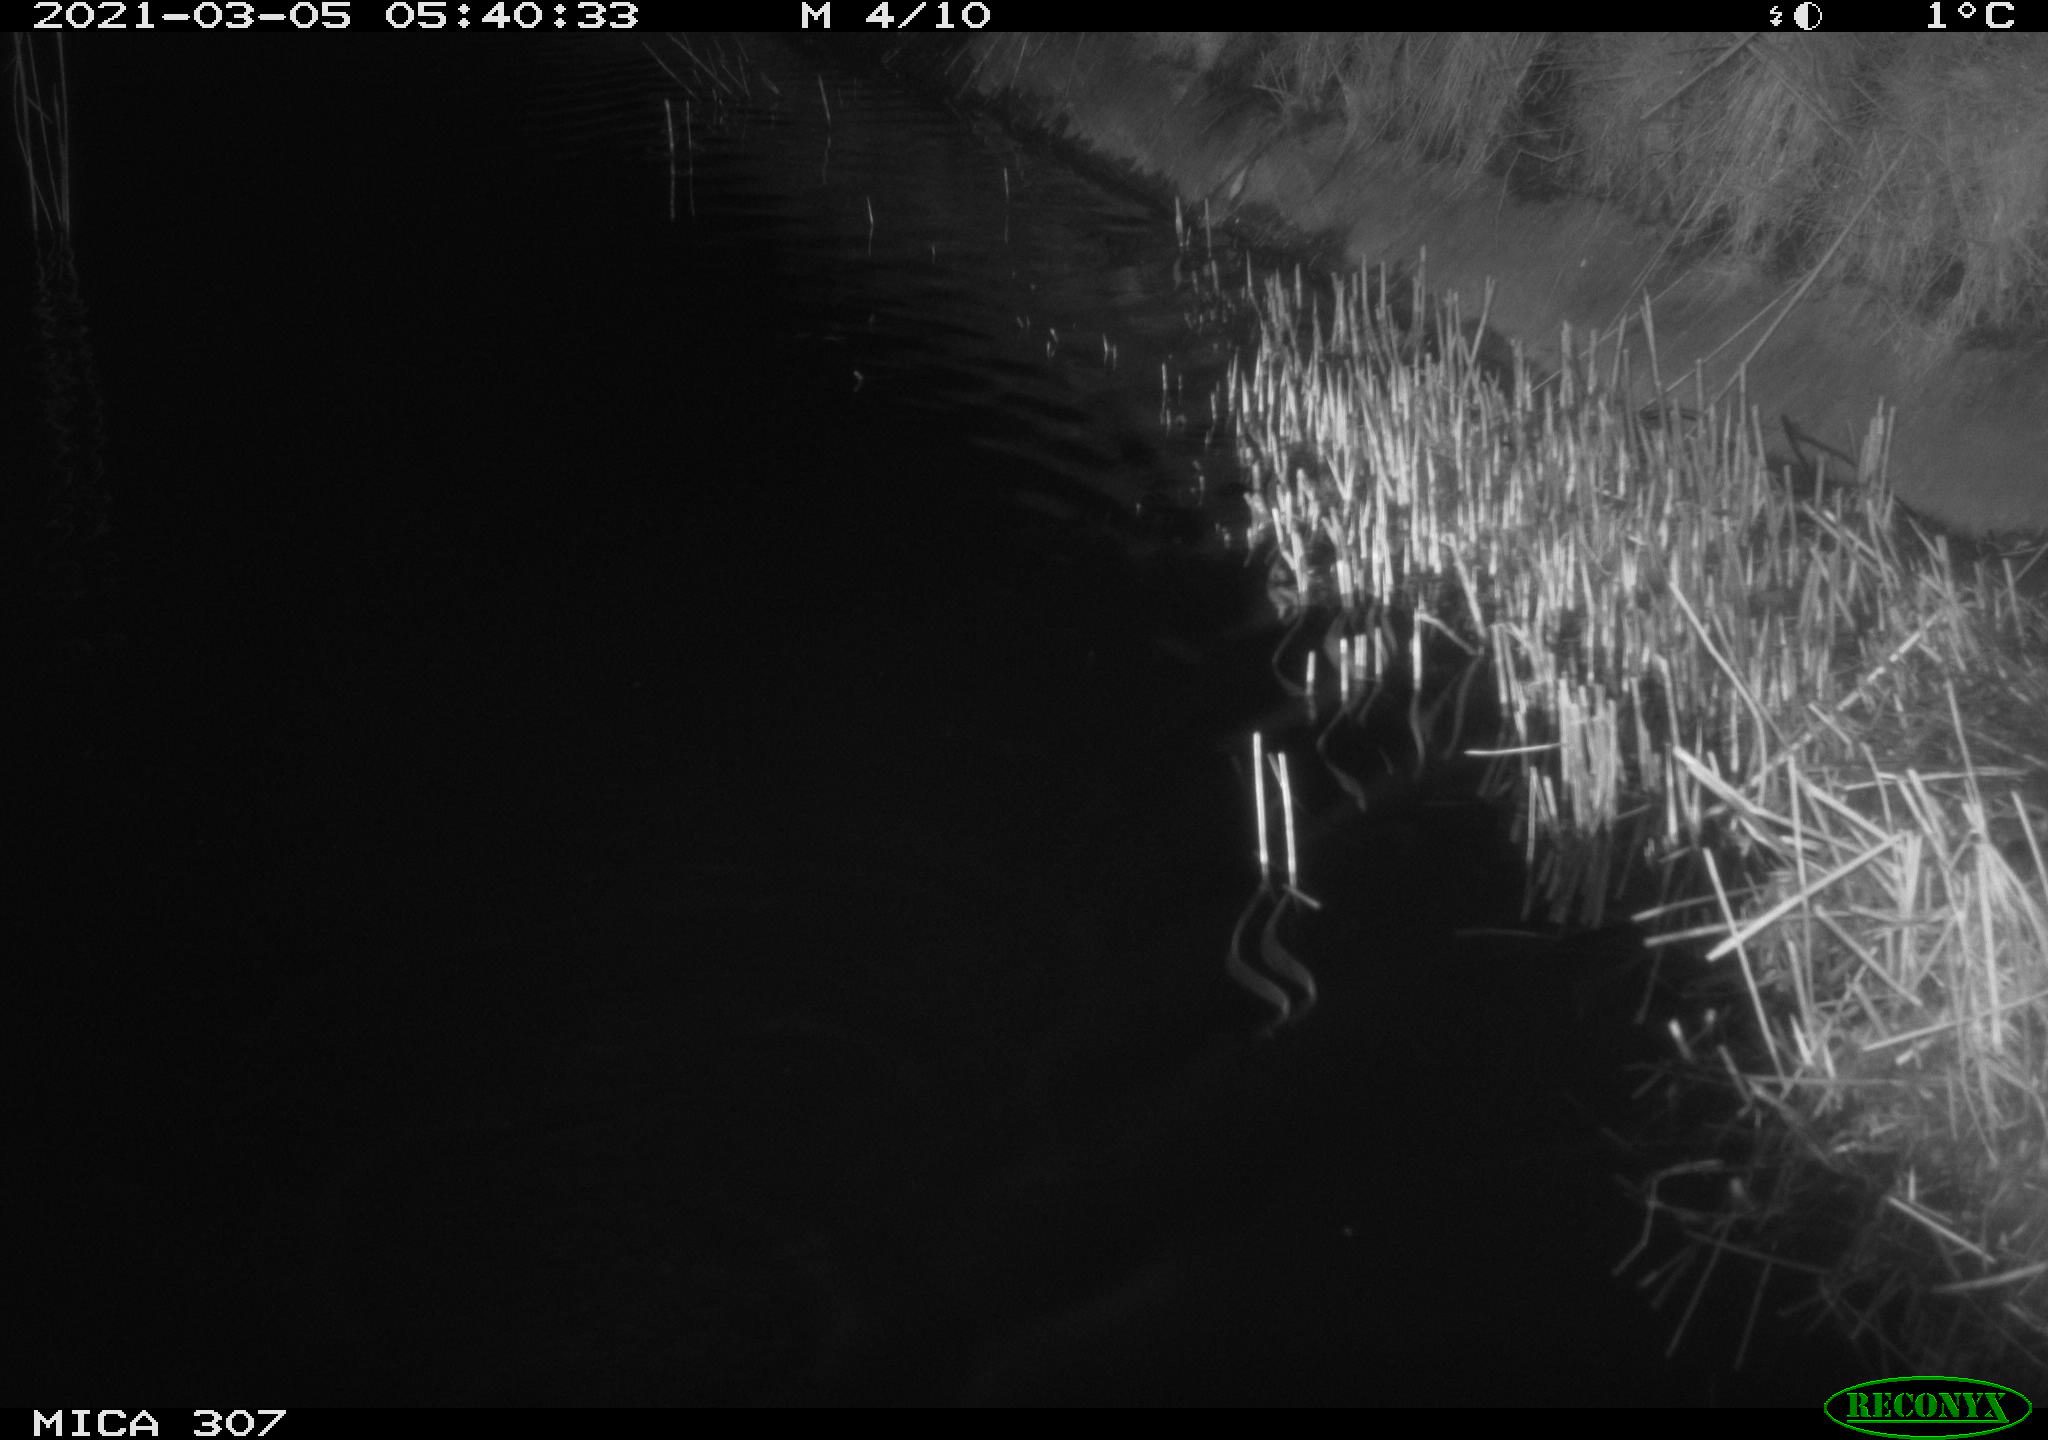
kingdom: Animalia
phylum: Chordata
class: Mammalia
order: Rodentia
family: Cricetidae
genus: Ondatra
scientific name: Ondatra zibethicus
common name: Muskrat
